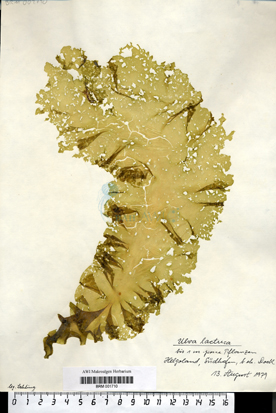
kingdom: Plantae
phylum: Chlorophyta
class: Ulvophyceae
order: Ulvales
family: Ulvaceae
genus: Ulva
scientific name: Ulva lactuca
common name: Sea lettuce
